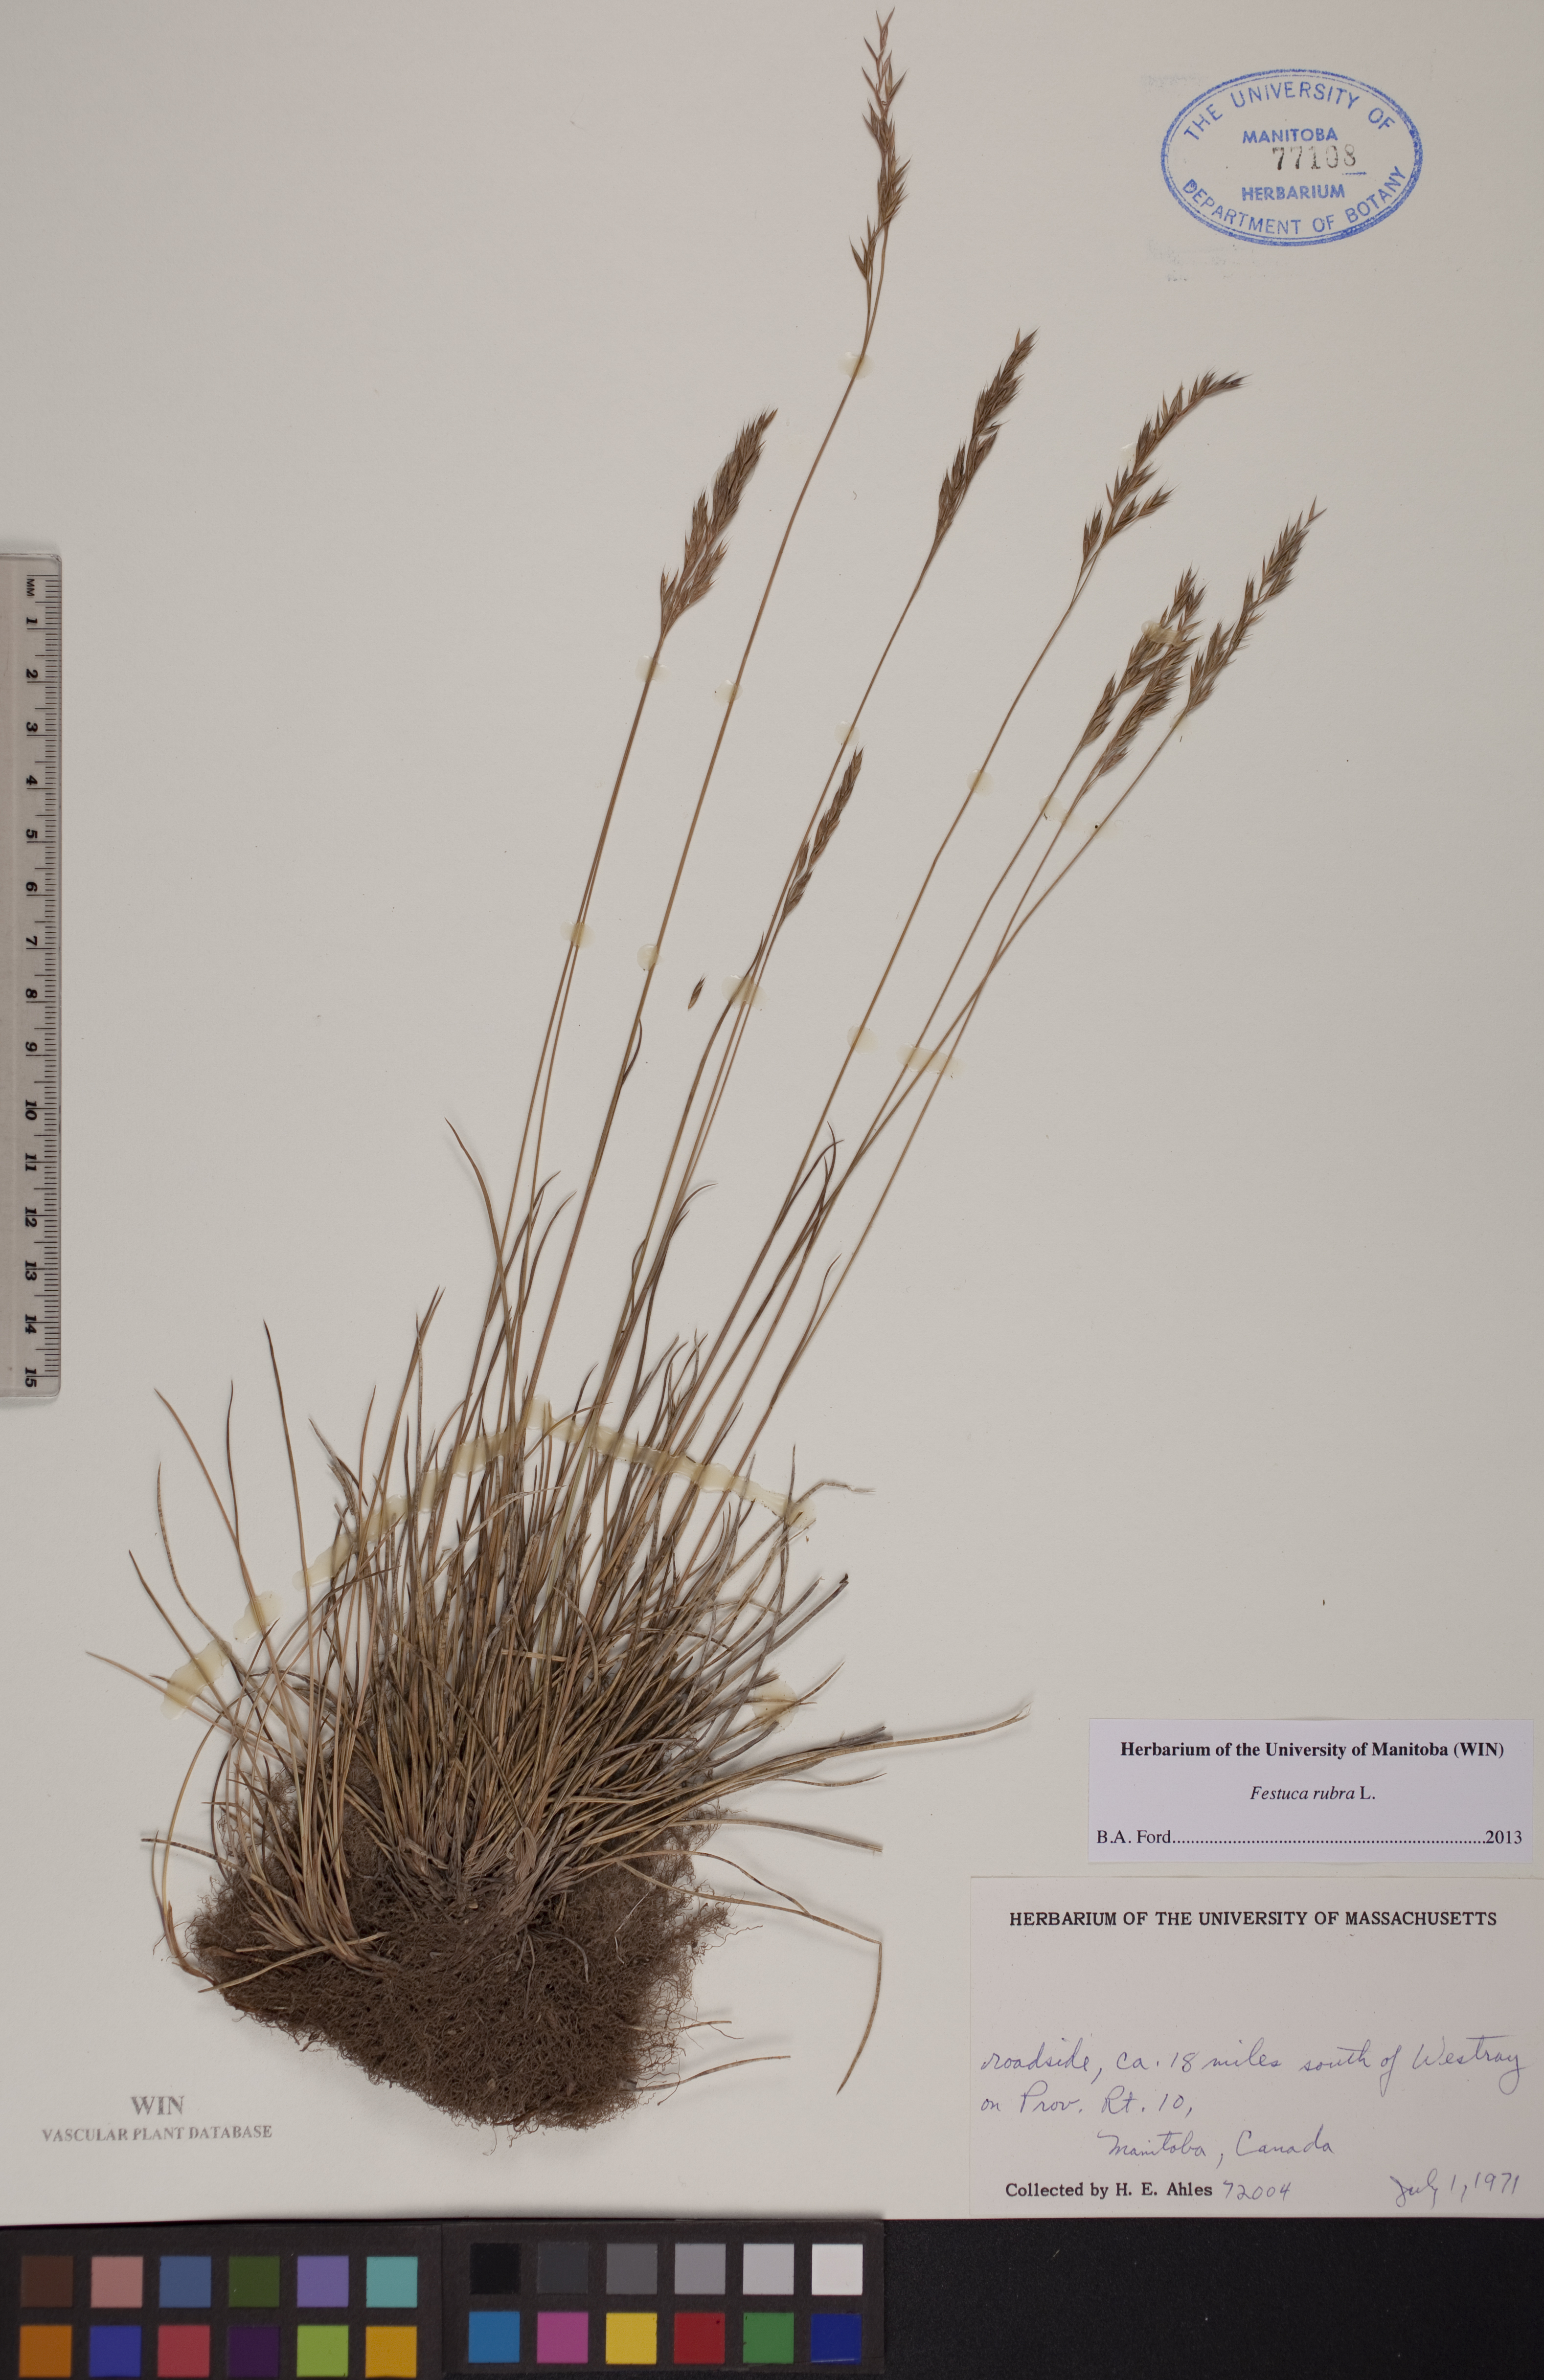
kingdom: Plantae
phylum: Tracheophyta
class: Liliopsida
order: Poales
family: Poaceae
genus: Festuca
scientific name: Festuca rubra
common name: Red fescue
